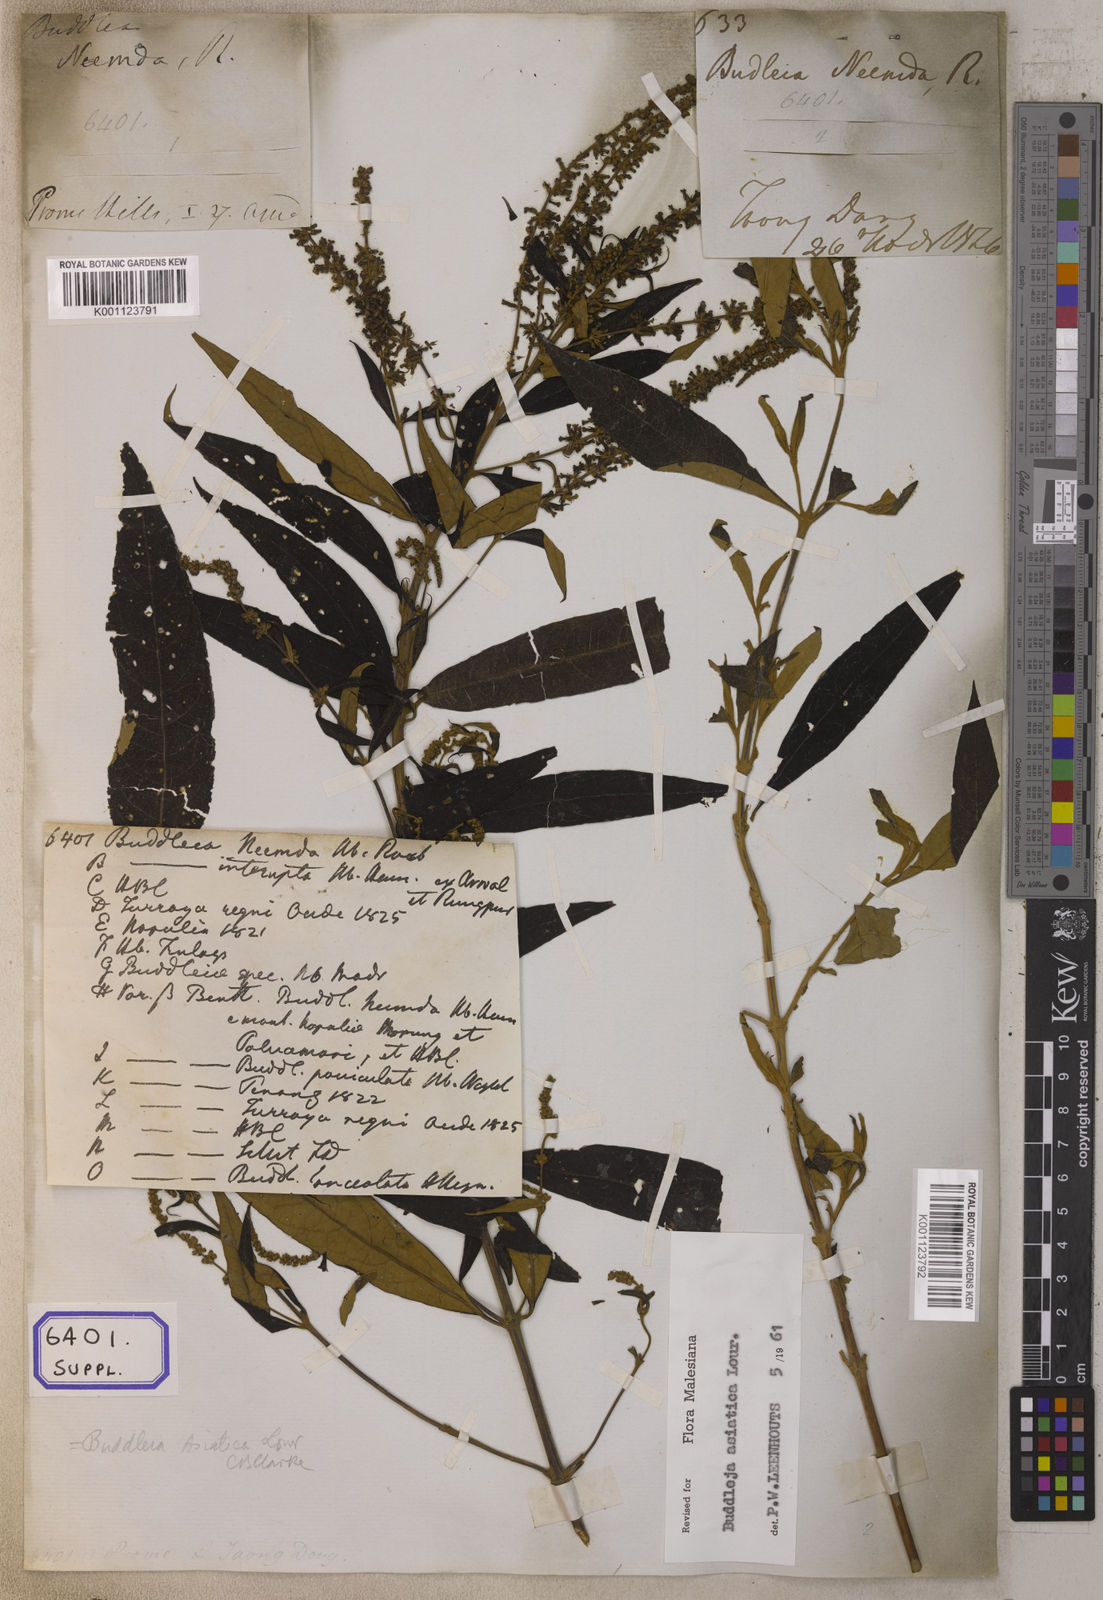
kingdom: Plantae
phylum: Tracheophyta
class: Magnoliopsida
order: Lamiales
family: Scrophulariaceae
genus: Buddleja
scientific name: Buddleja
